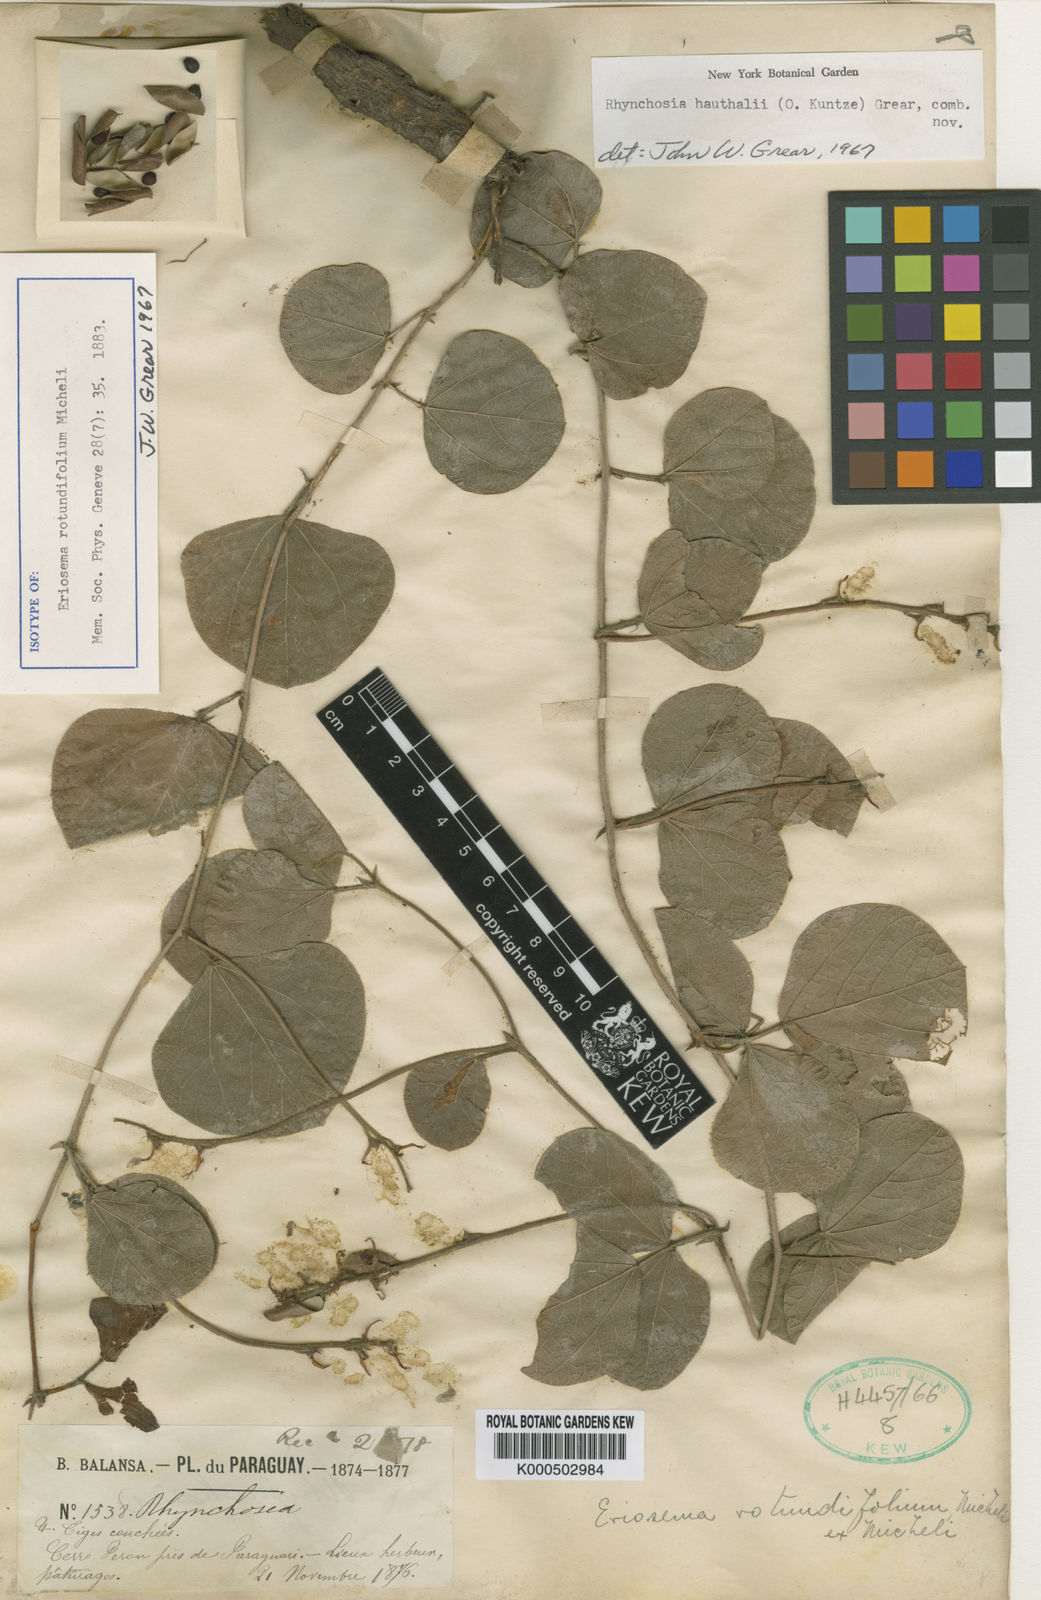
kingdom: Plantae
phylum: Tracheophyta
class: Magnoliopsida
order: Fabales
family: Fabaceae
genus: Rhynchosia
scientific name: Rhynchosia
